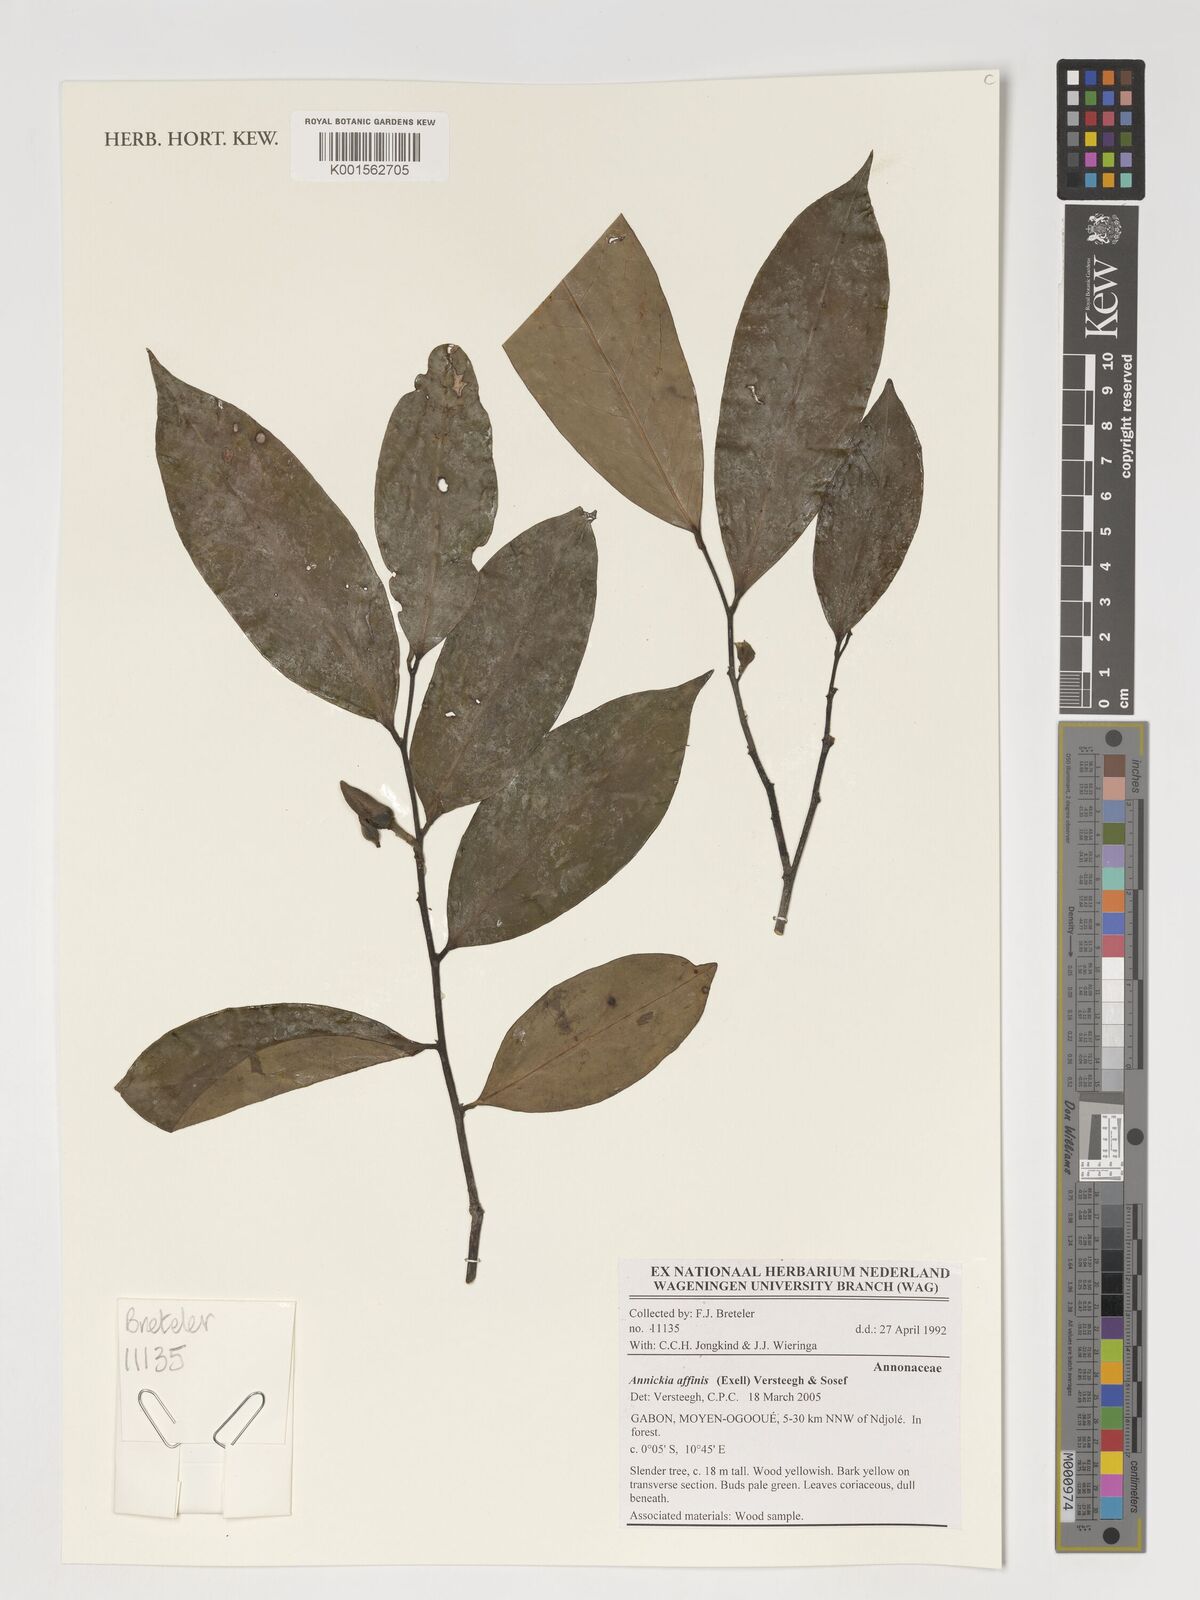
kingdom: Plantae
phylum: Tracheophyta
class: Magnoliopsida
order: Magnoliales
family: Annonaceae
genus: Annickia
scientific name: Annickia affinis
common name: African yellow wood
